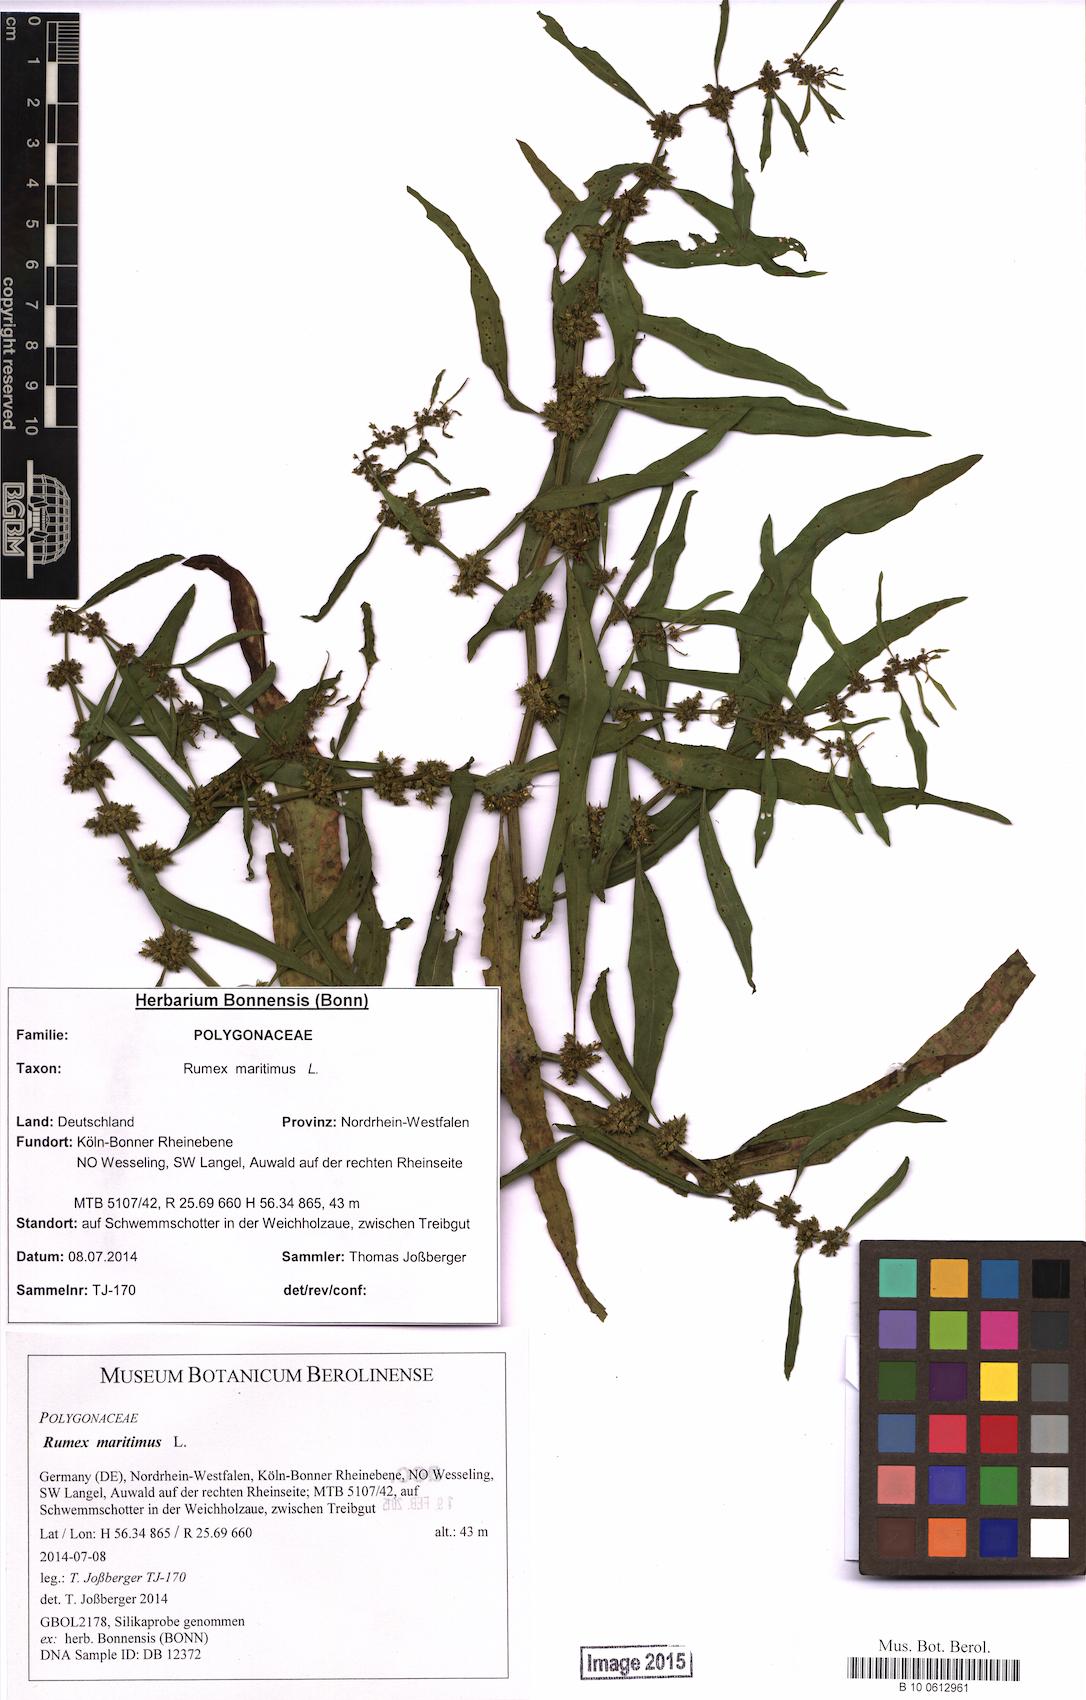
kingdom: Plantae
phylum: Tracheophyta
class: Magnoliopsida
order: Caryophyllales
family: Polygonaceae
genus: Rumex
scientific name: Rumex maritimus
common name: Golden dock
